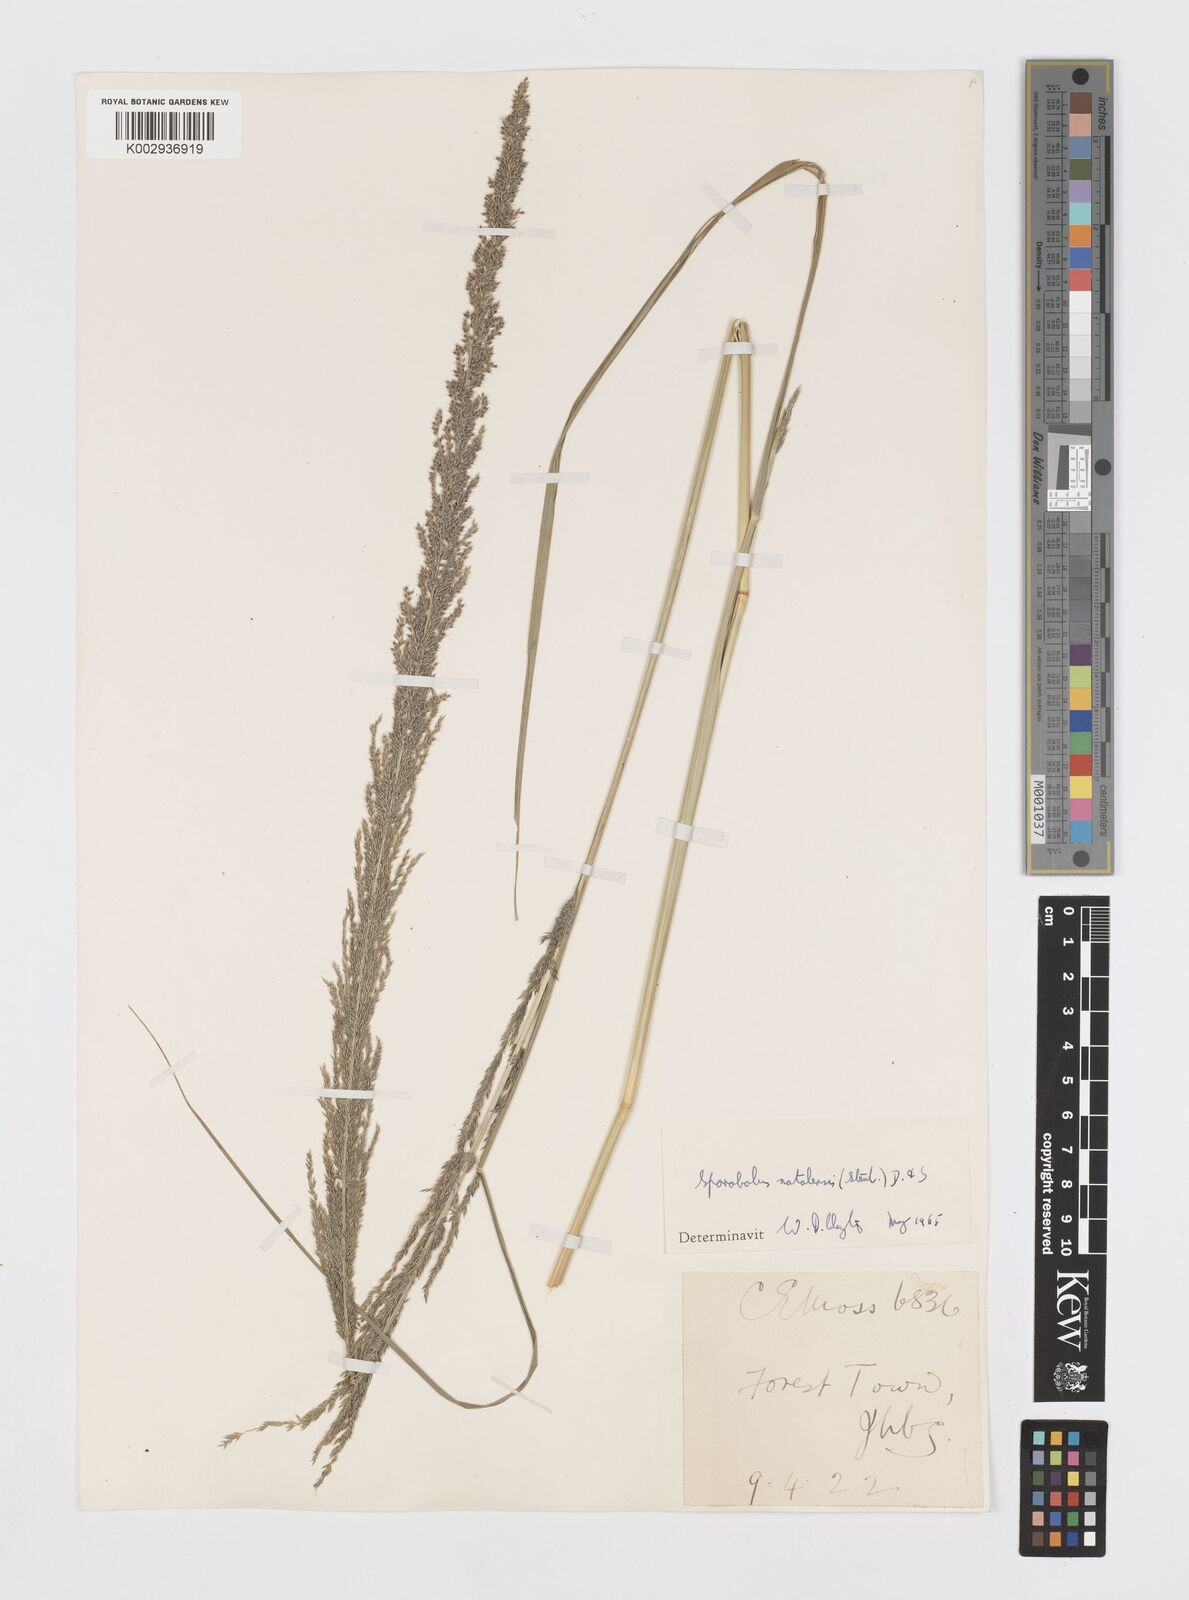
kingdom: Plantae
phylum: Tracheophyta
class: Liliopsida
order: Poales
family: Poaceae
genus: Sporobolus
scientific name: Sporobolus natalensis
